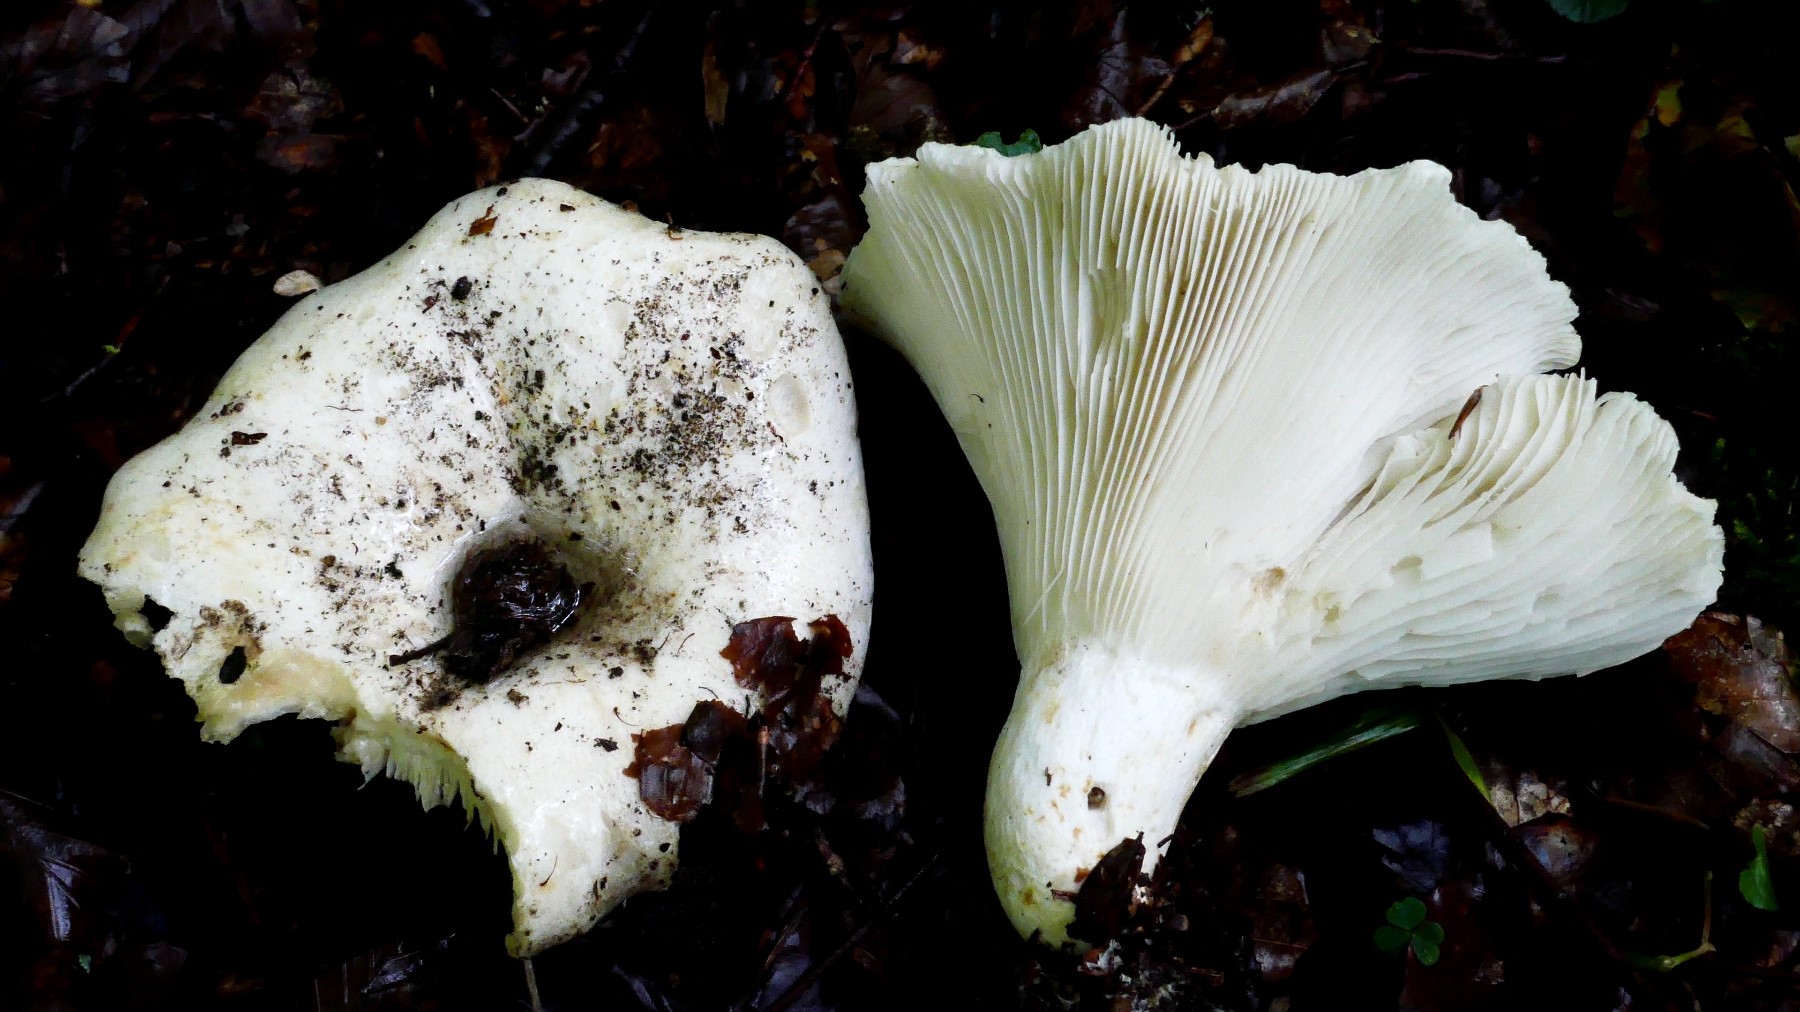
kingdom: Fungi
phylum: Basidiomycota
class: Agaricomycetes
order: Russulales
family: Russulaceae
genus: Russula
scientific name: Russula chloroides
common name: grønhalset tragt-skørhat
